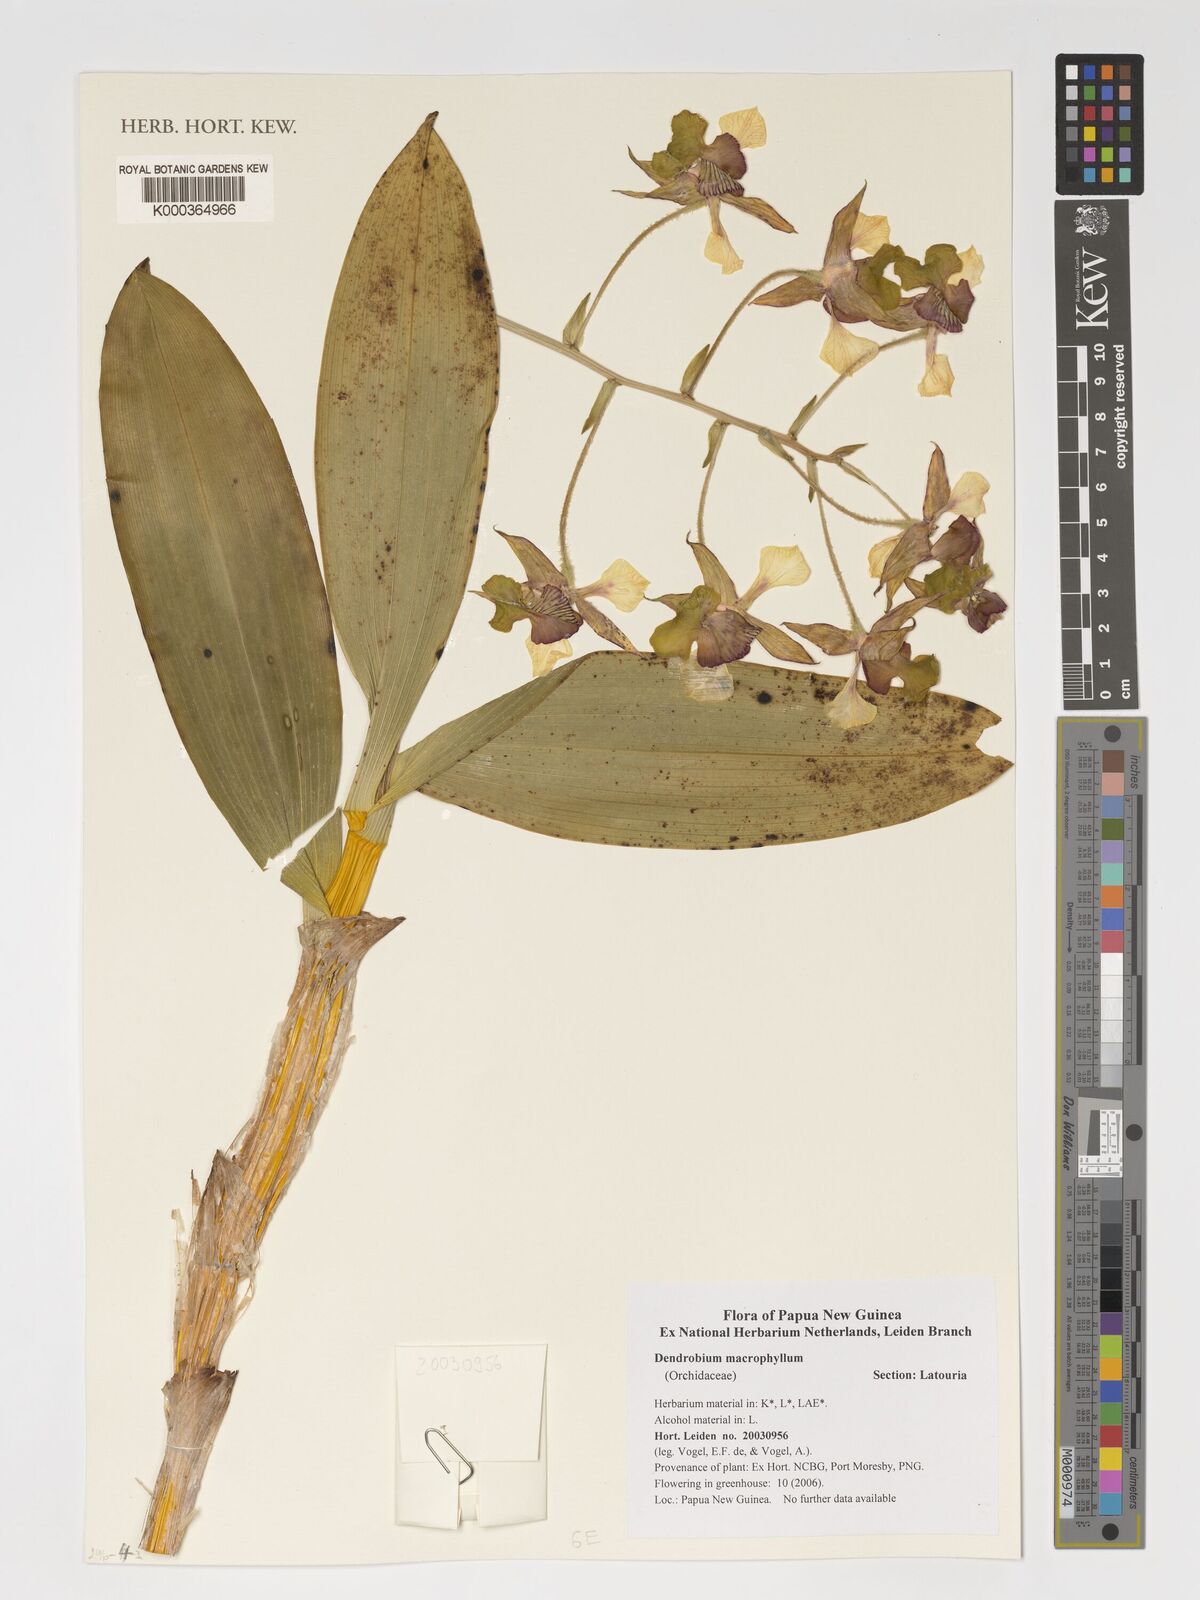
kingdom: Plantae
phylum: Tracheophyta
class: Liliopsida
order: Asparagales
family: Orchidaceae
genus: Dendrobium
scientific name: Dendrobium macrophyllum
